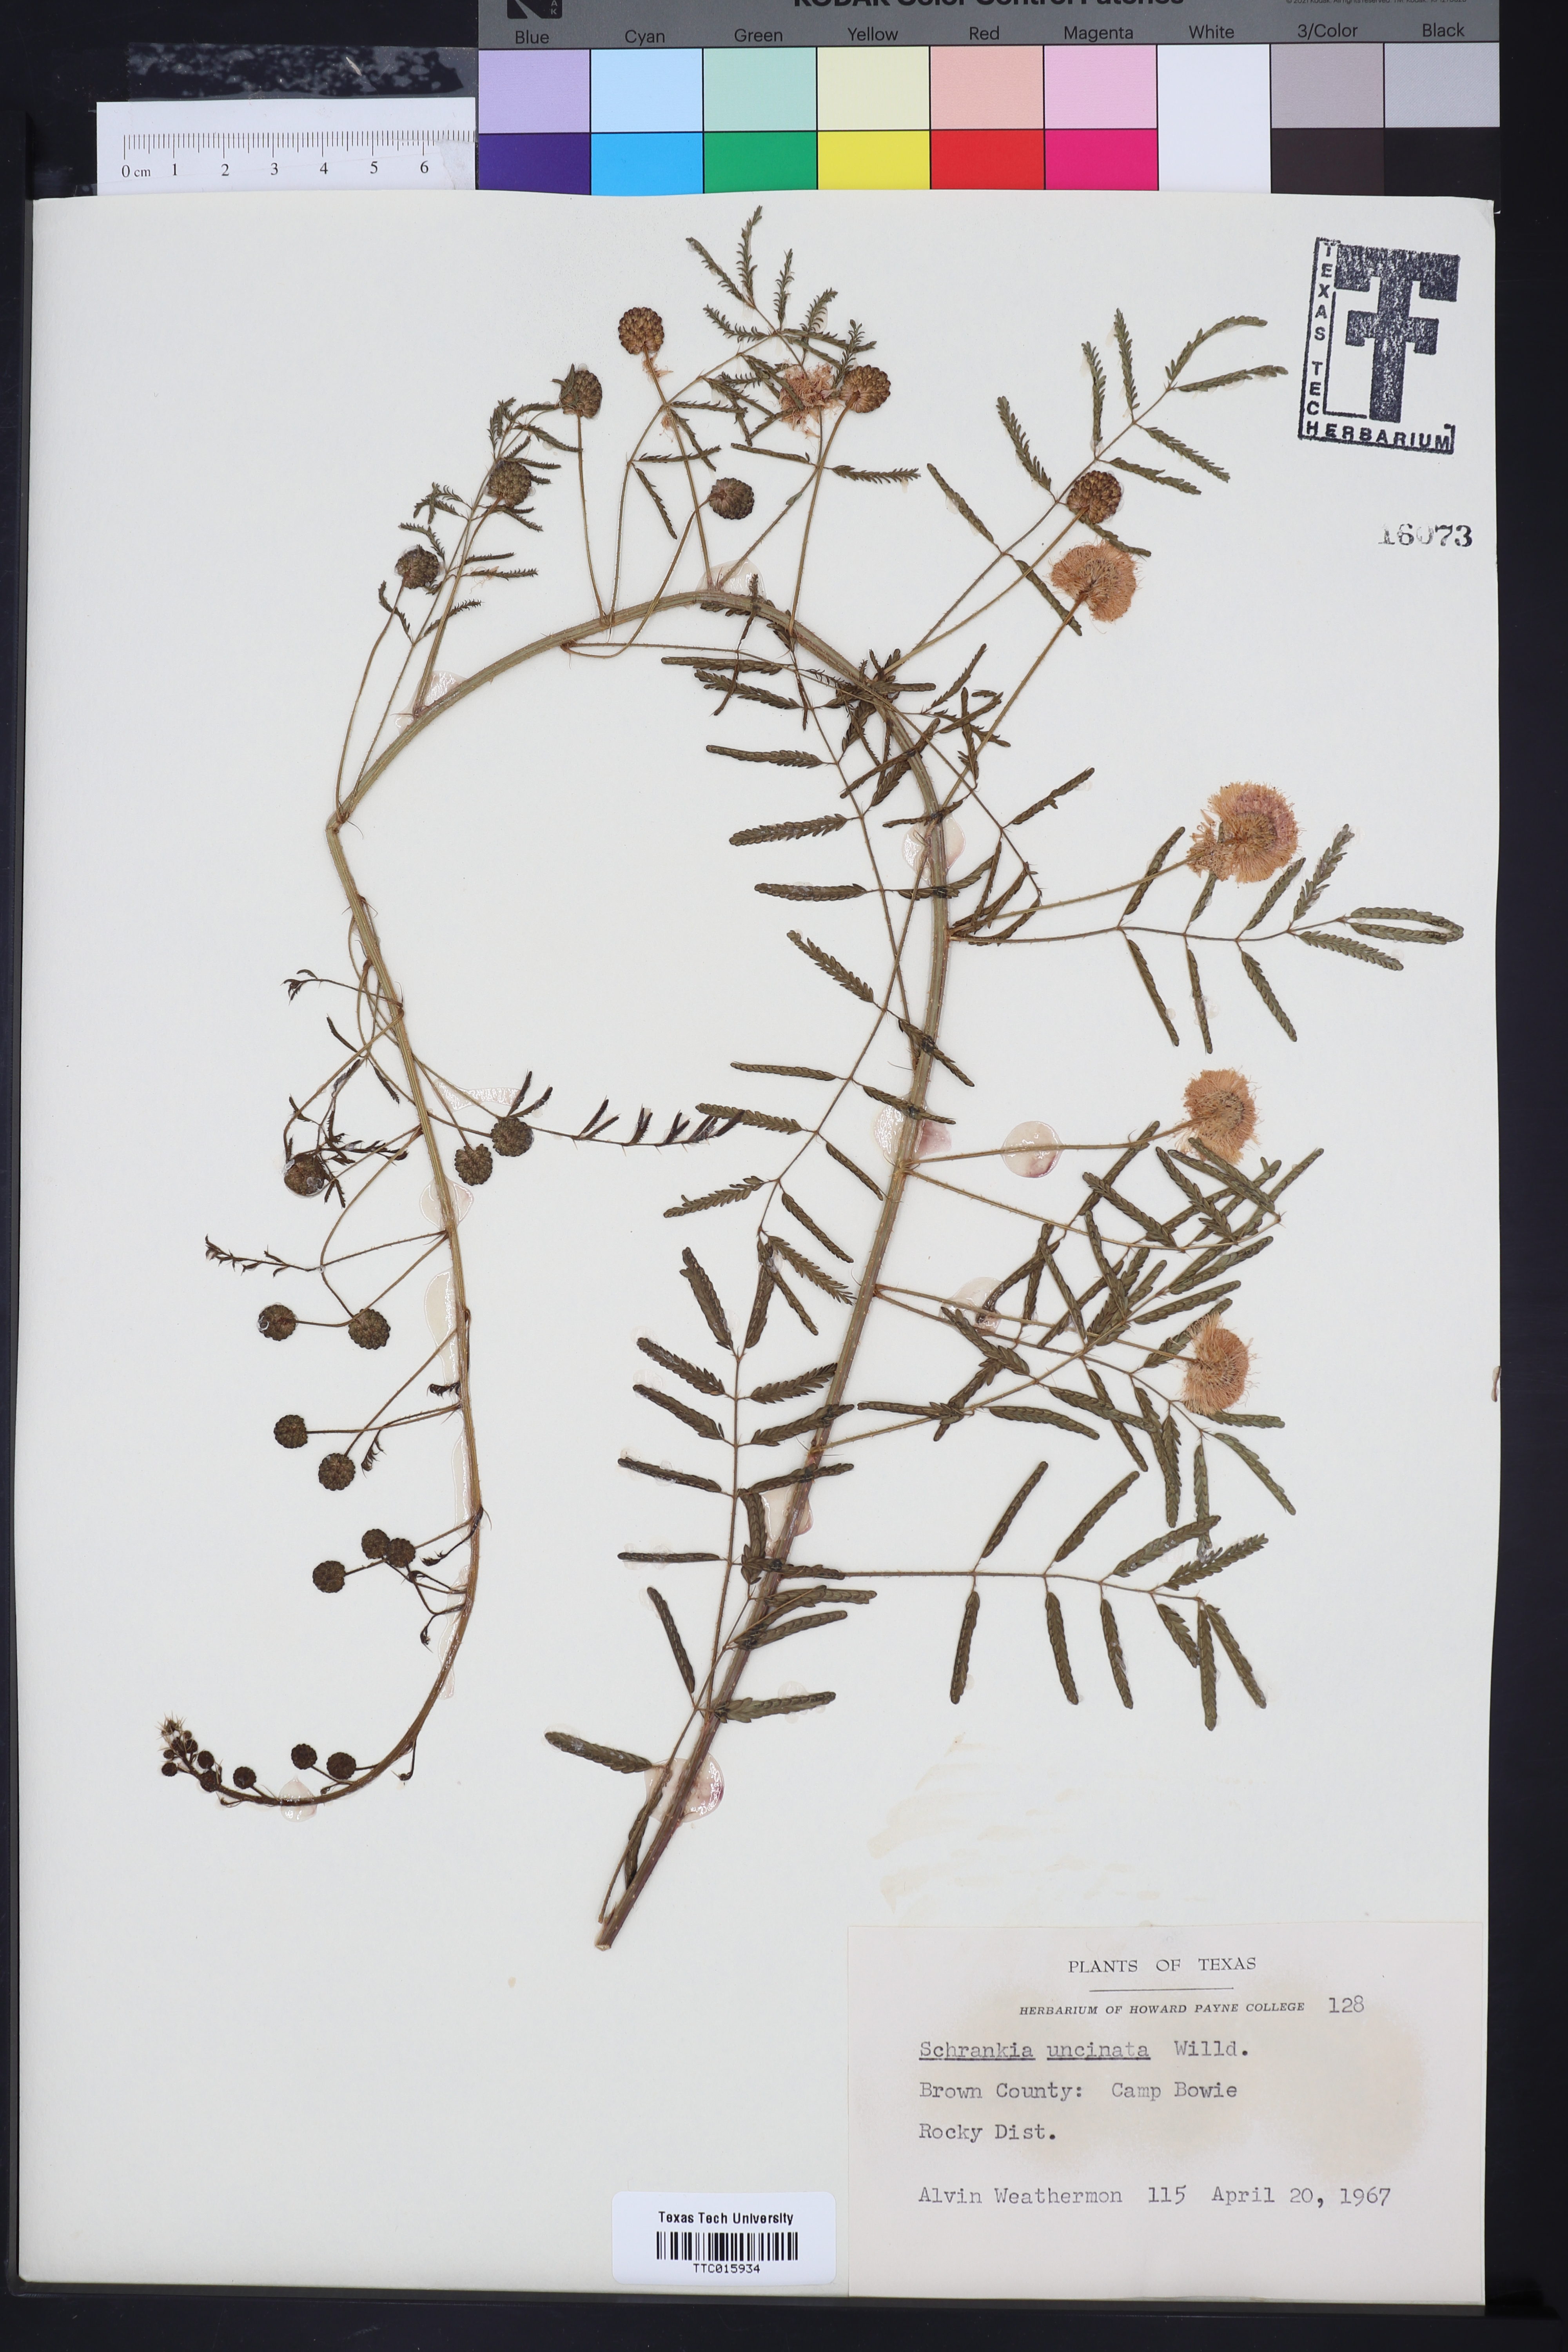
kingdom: Plantae
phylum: Tracheophyta
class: Magnoliopsida
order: Fabales
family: Fabaceae
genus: Mimosa
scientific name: Mimosa quadrivalvis
